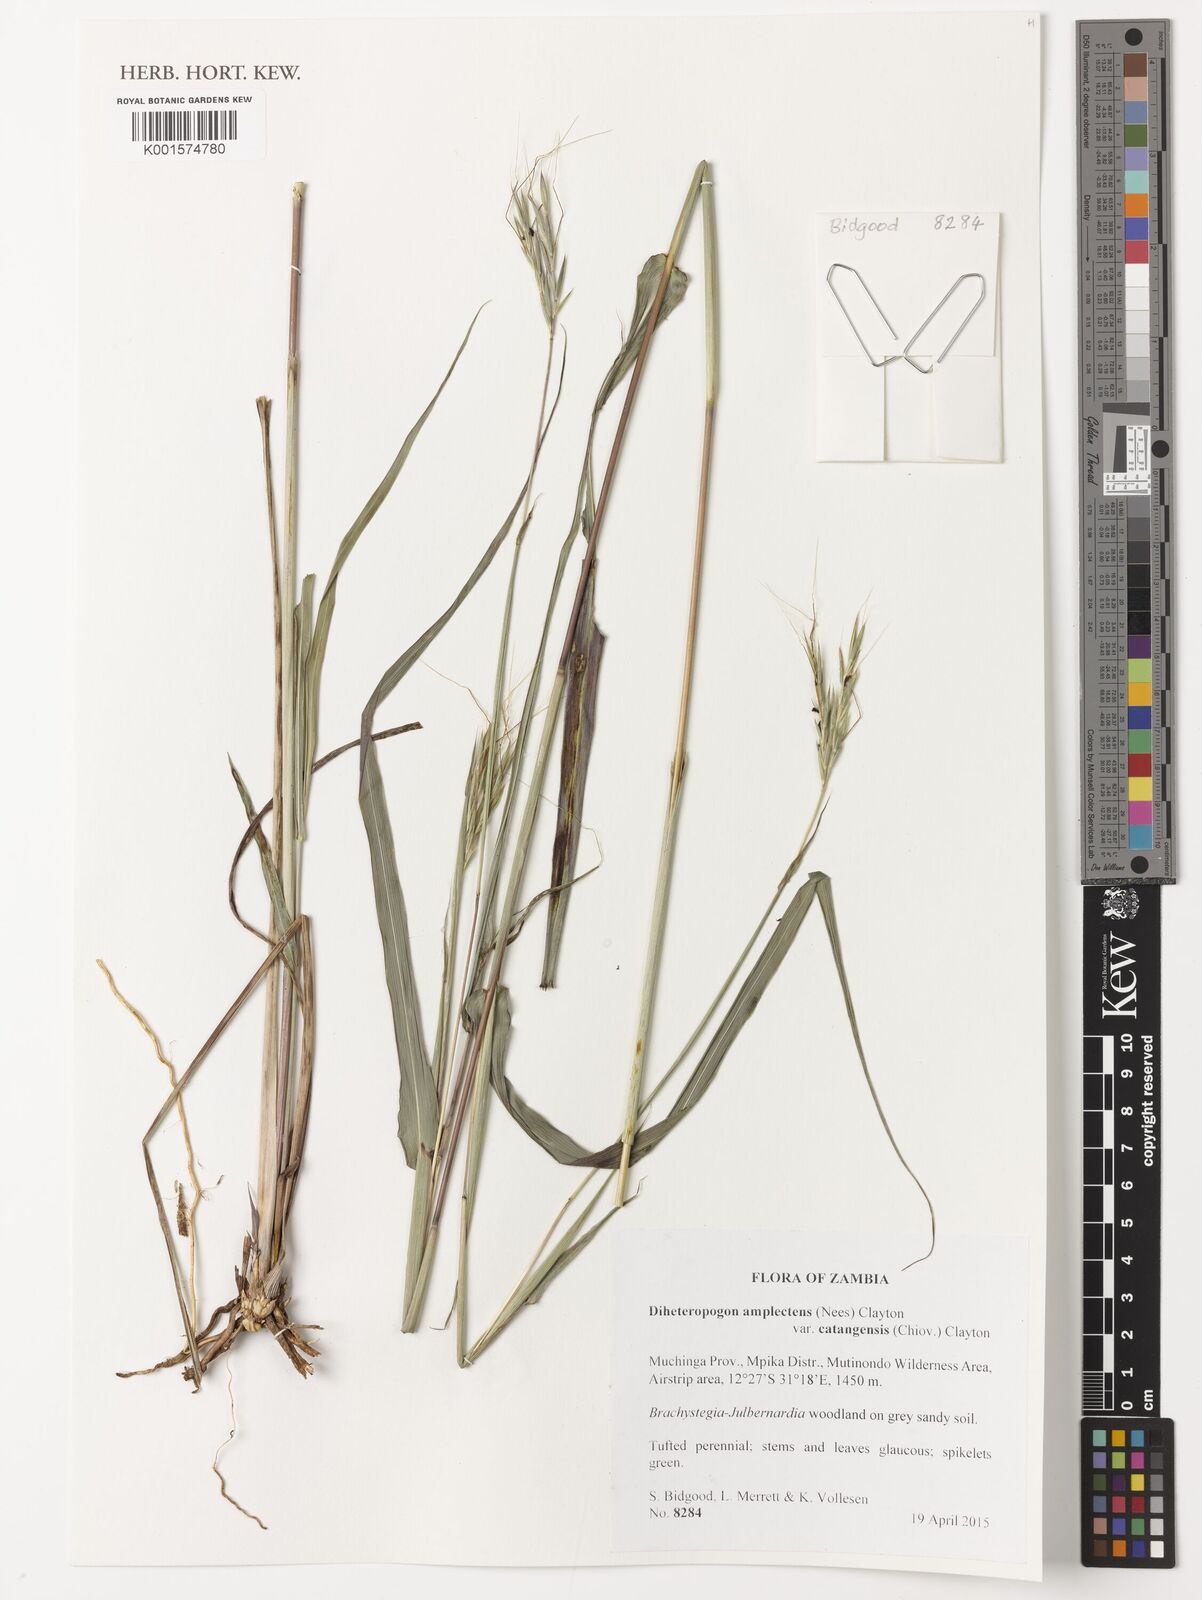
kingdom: Plantae
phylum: Tracheophyta
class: Liliopsida
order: Poales
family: Poaceae
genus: Diheteropogon
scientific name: Diheteropogon amplectens
